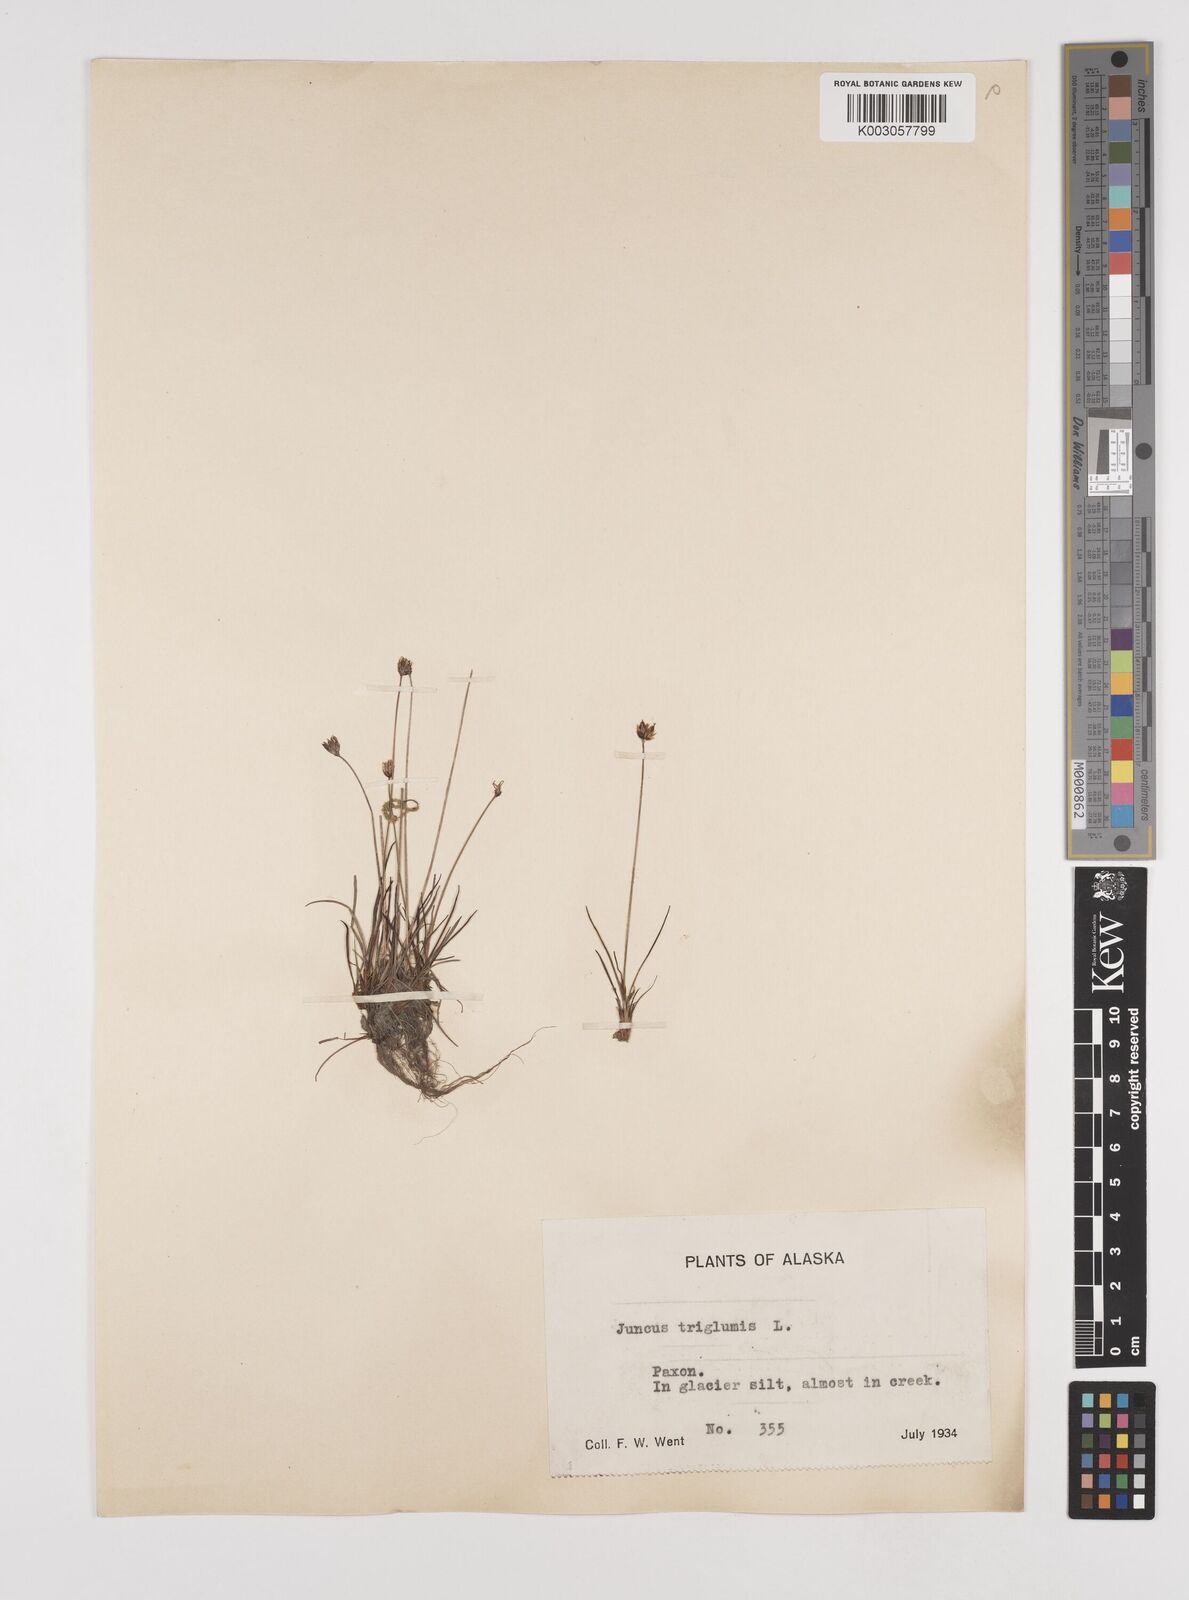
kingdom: Plantae
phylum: Tracheophyta
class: Liliopsida
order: Poales
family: Juncaceae
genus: Juncus
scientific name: Juncus triglumis
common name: Three-flowered rush
